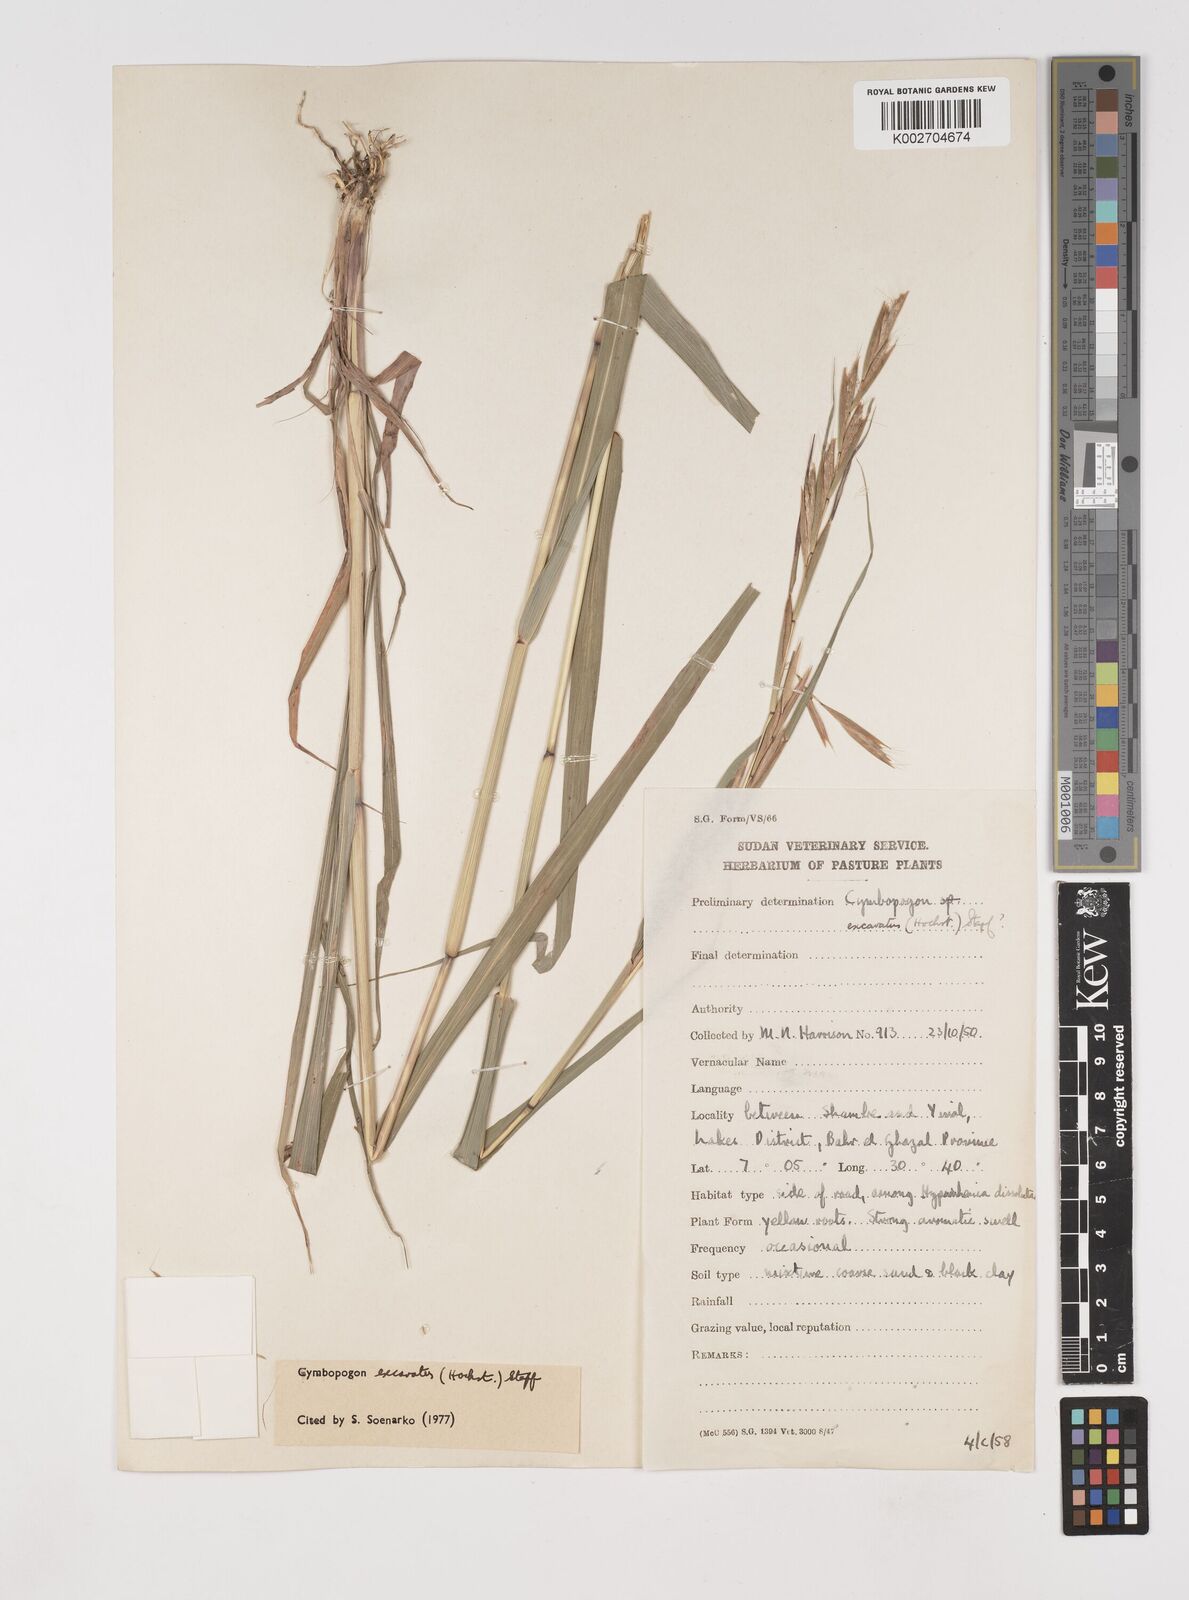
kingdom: Plantae
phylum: Tracheophyta
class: Liliopsida
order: Poales
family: Poaceae
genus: Cymbopogon
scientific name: Cymbopogon giganteus
